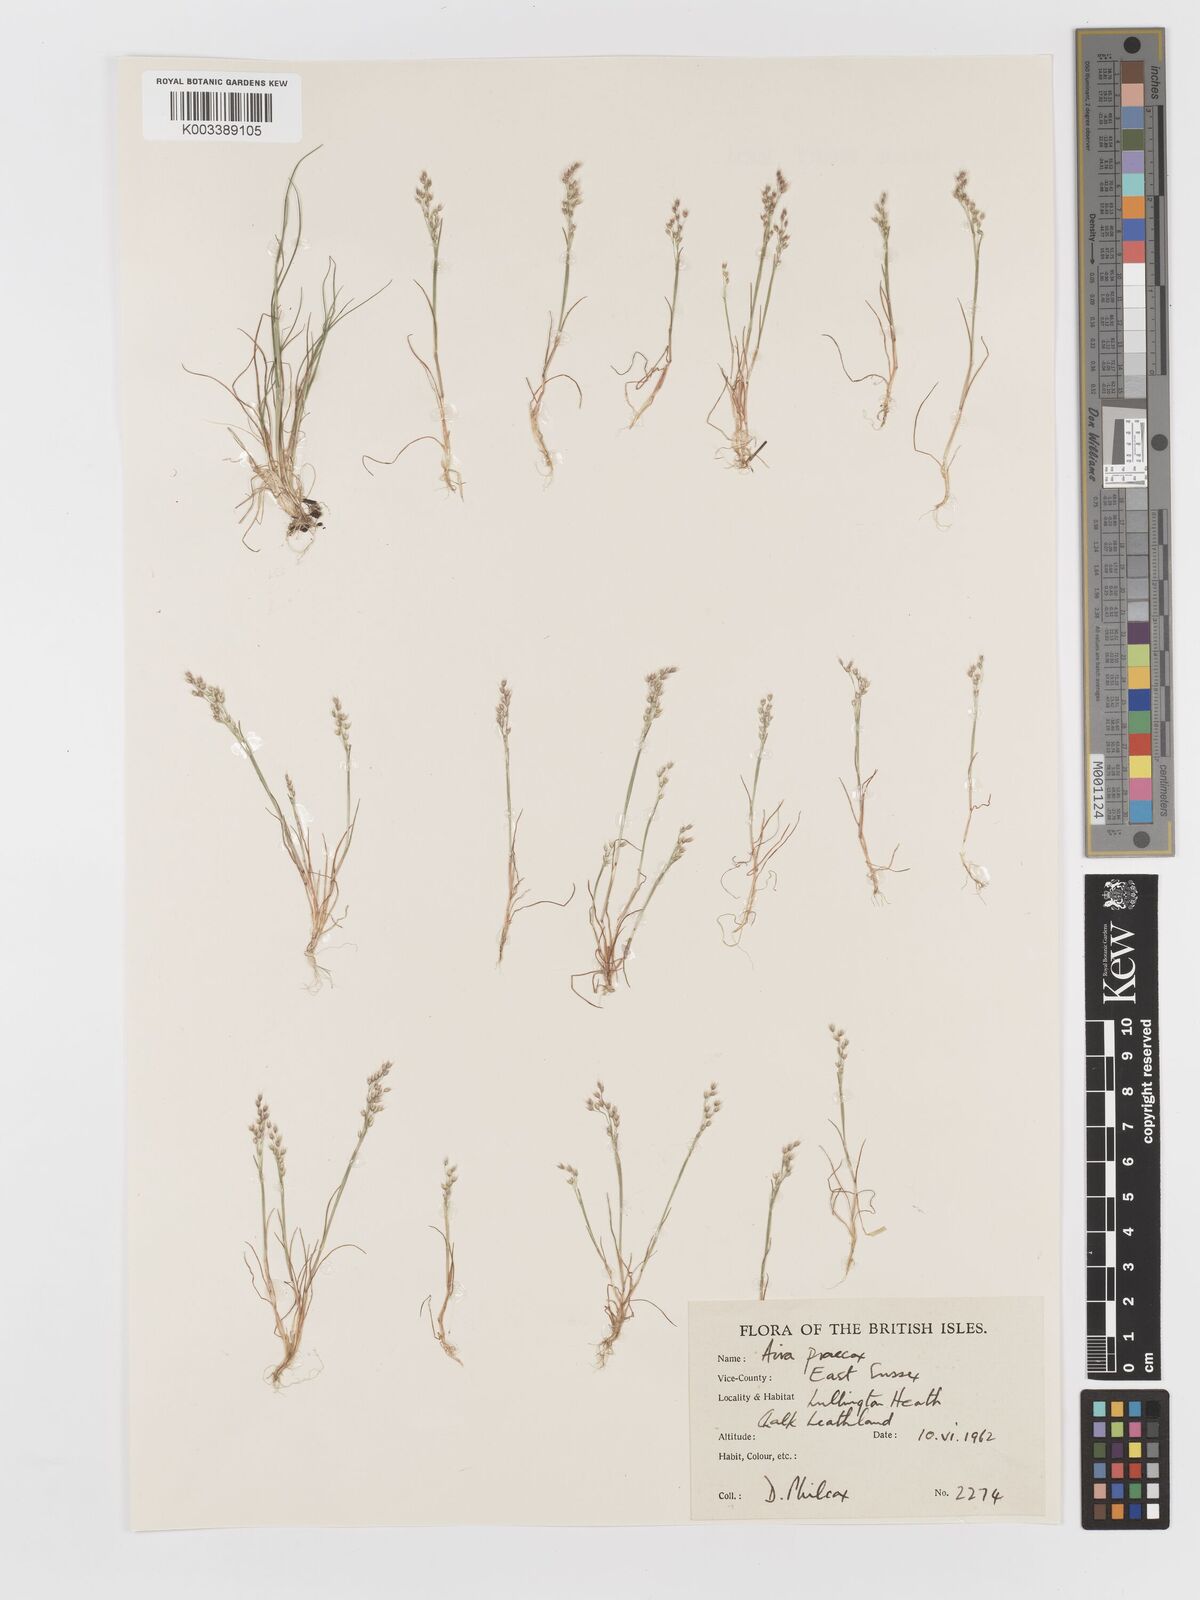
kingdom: Plantae
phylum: Tracheophyta
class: Liliopsida
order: Poales
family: Poaceae
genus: Aira
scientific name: Aira praecox
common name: Early hair-grass
